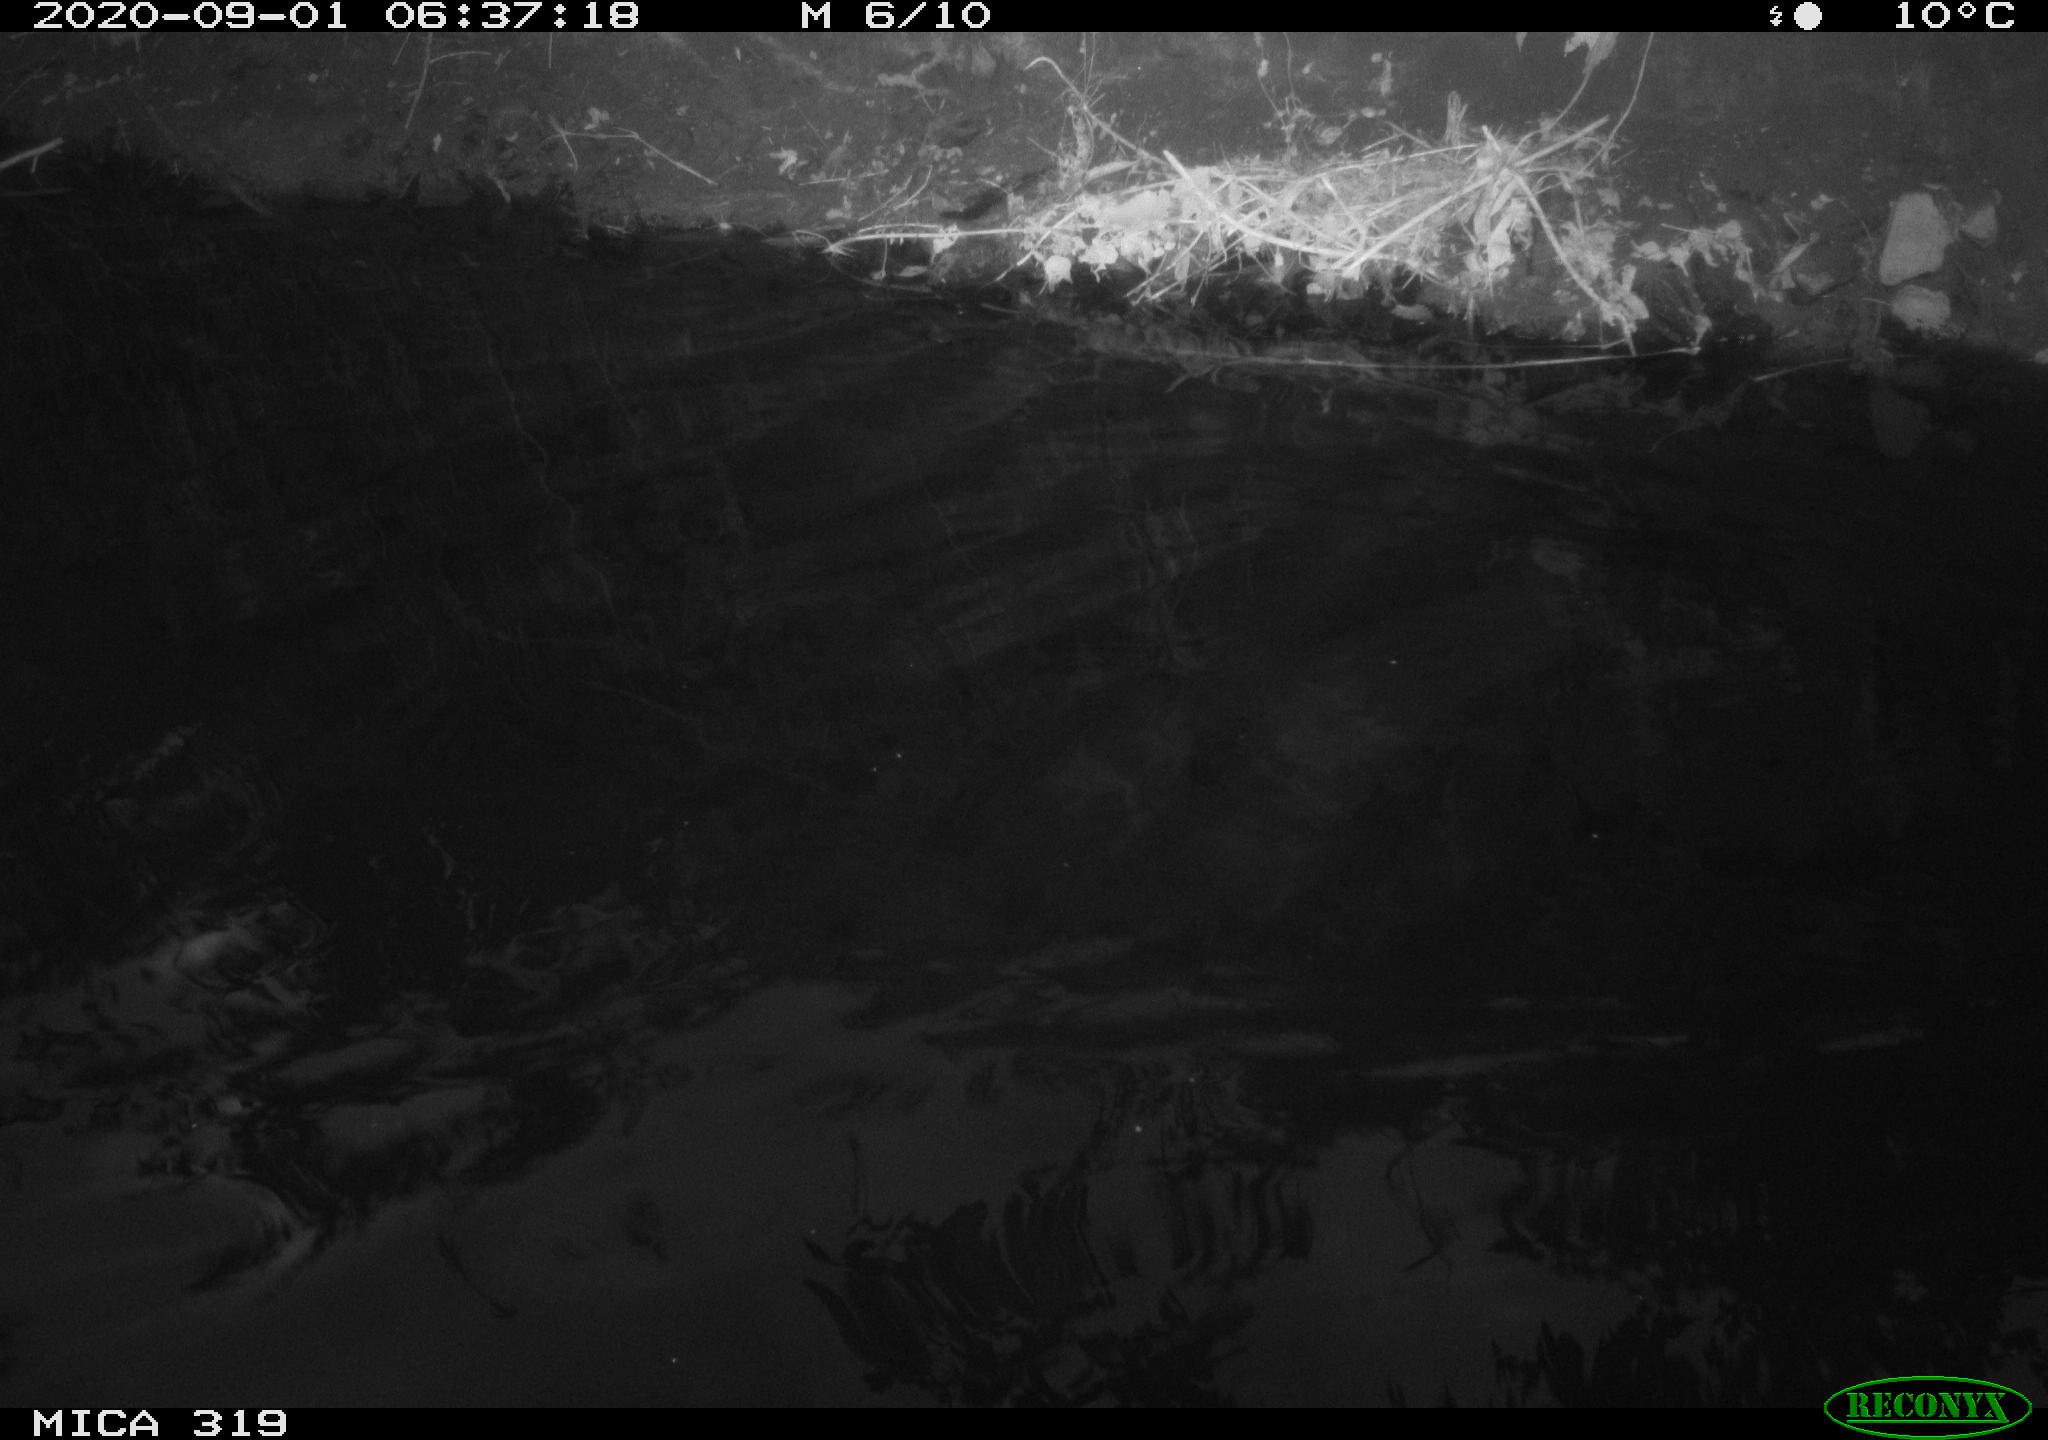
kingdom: Animalia
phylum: Chordata
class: Aves
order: Anseriformes
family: Anatidae
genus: Anas
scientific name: Anas platyrhynchos
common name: Mallard
